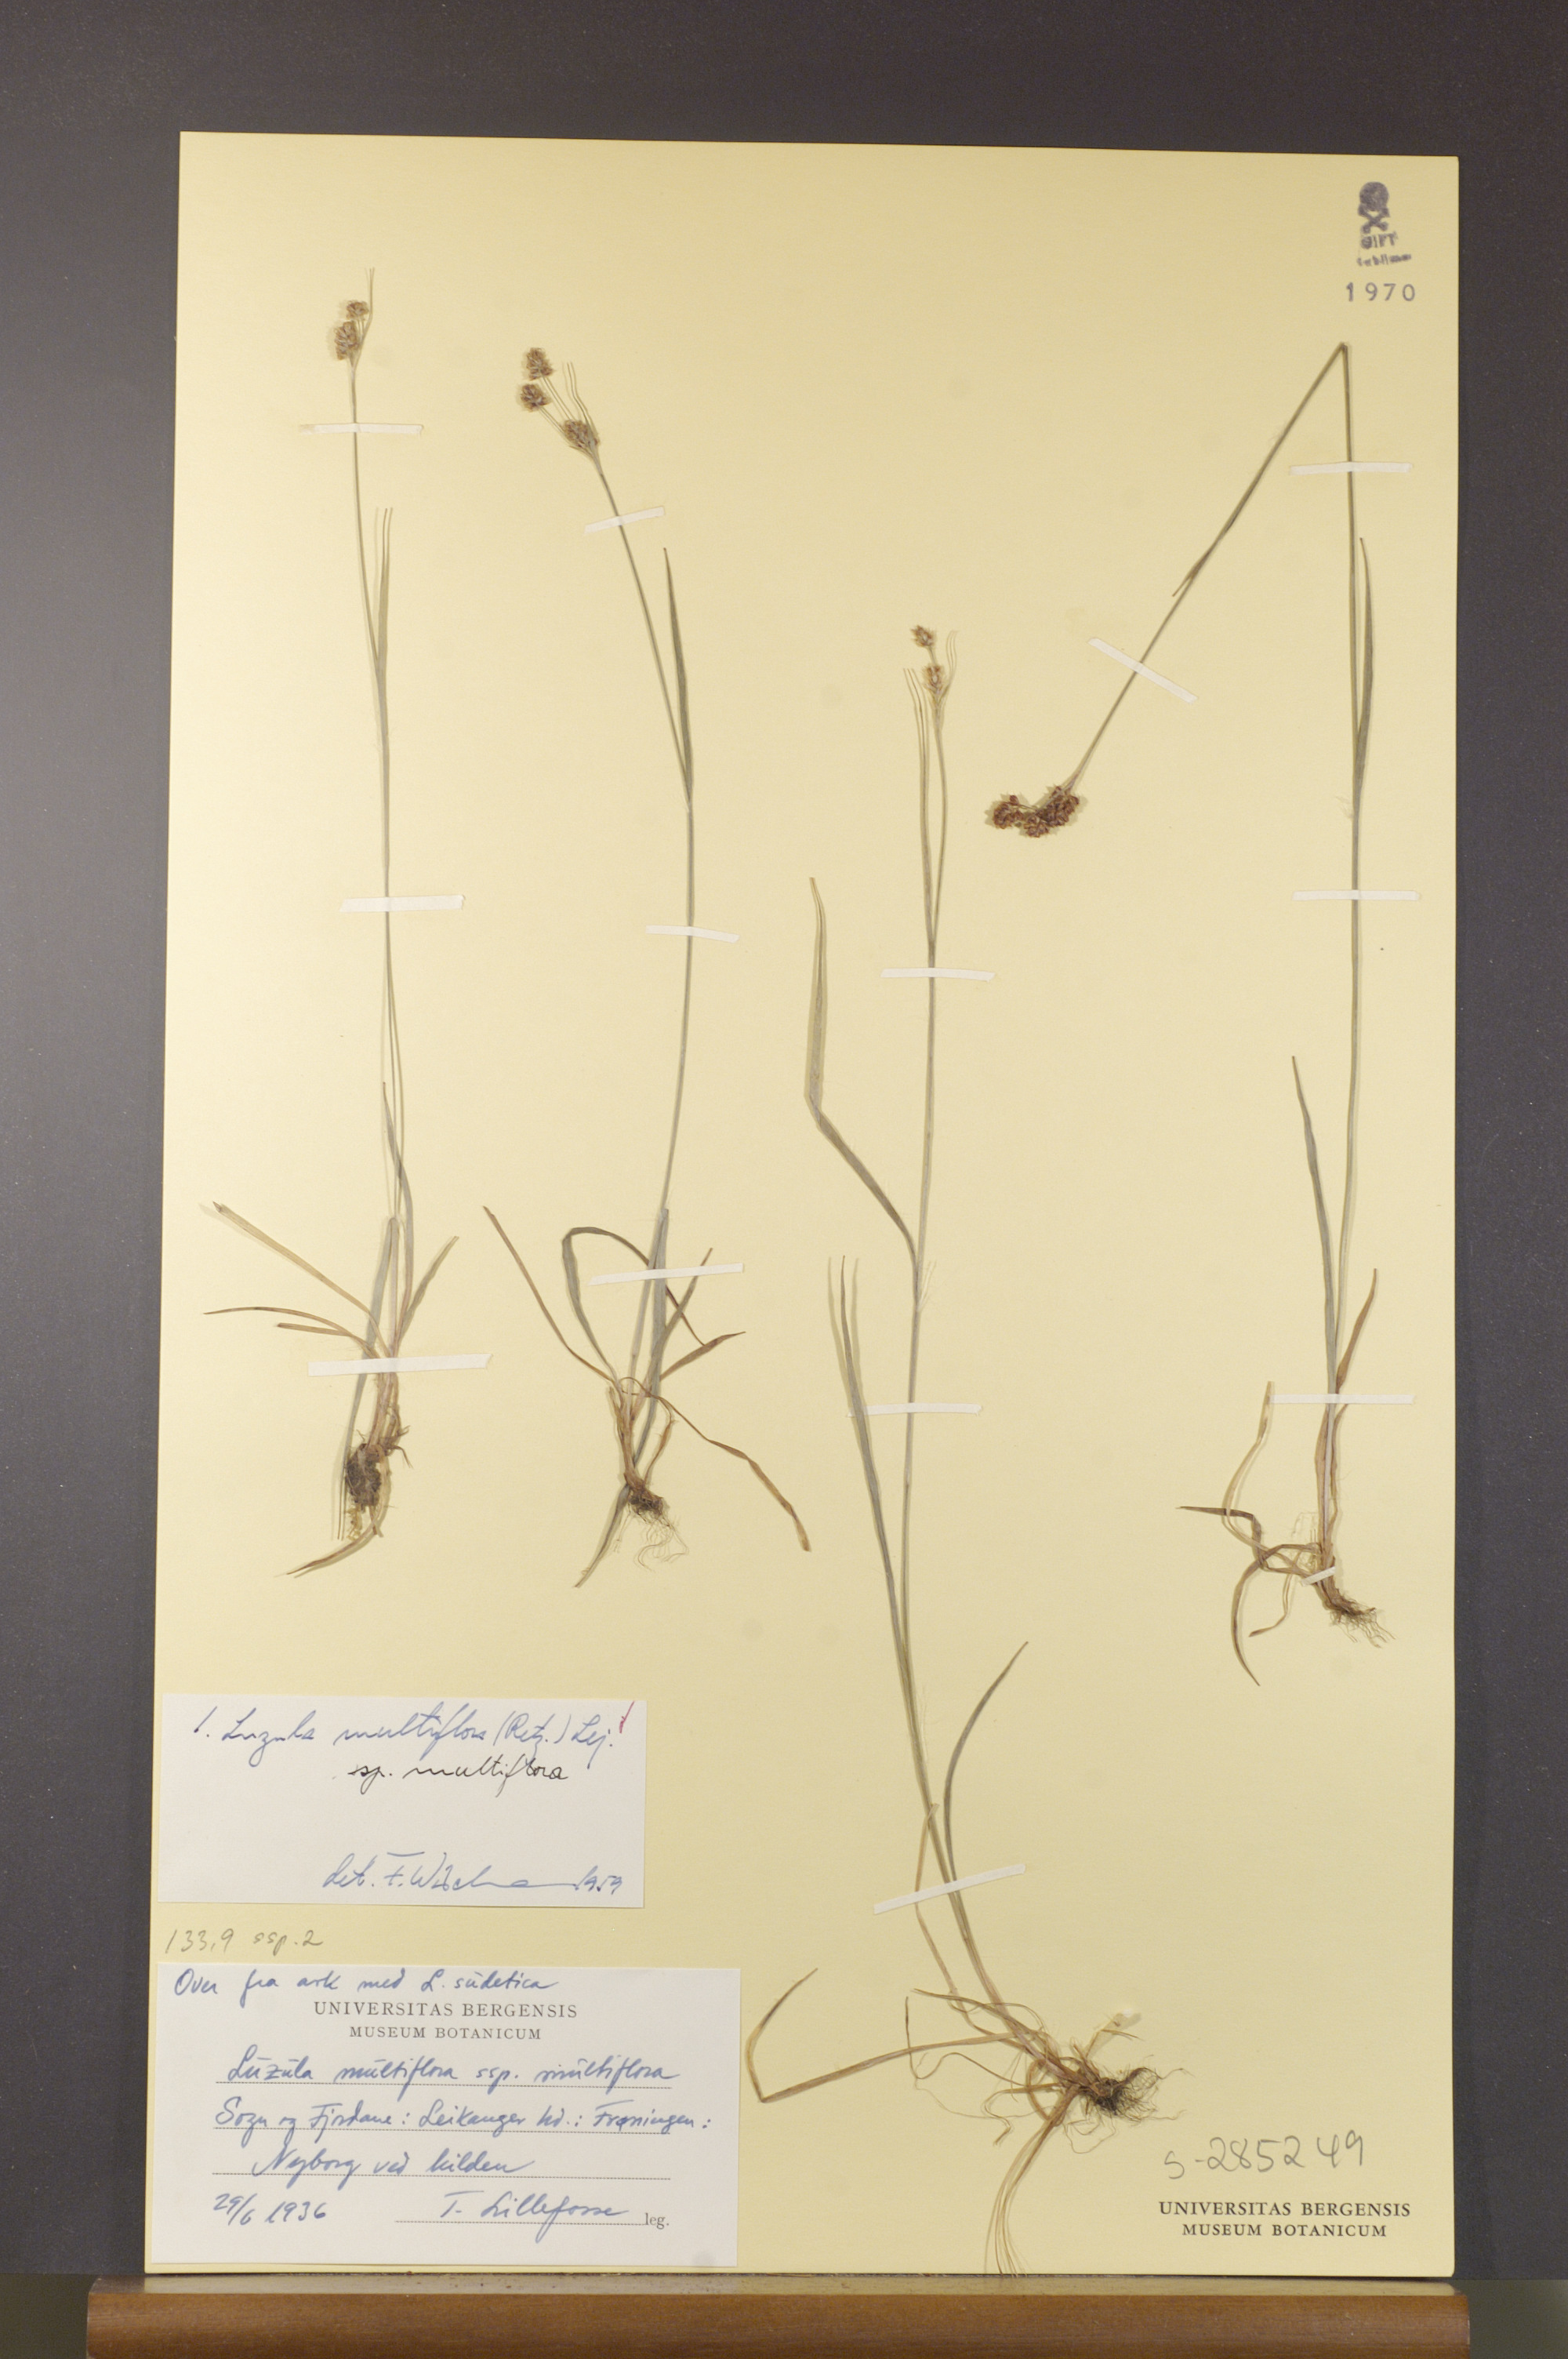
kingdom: Plantae
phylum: Tracheophyta
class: Liliopsida
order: Poales
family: Juncaceae
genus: Luzula
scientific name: Luzula multiflora
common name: Heath wood-rush
